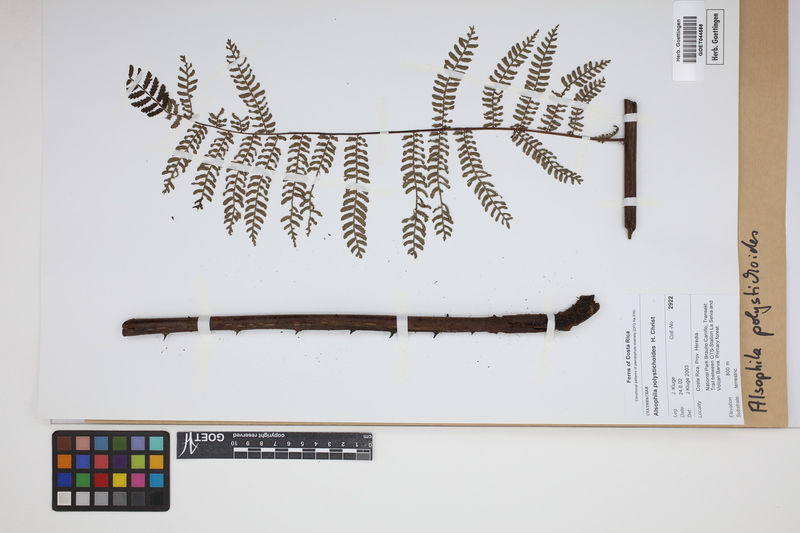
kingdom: Plantae
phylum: Tracheophyta
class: Polypodiopsida
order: Cyatheales
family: Cyatheaceae
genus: Alsophila
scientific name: Alsophila polystichoides
